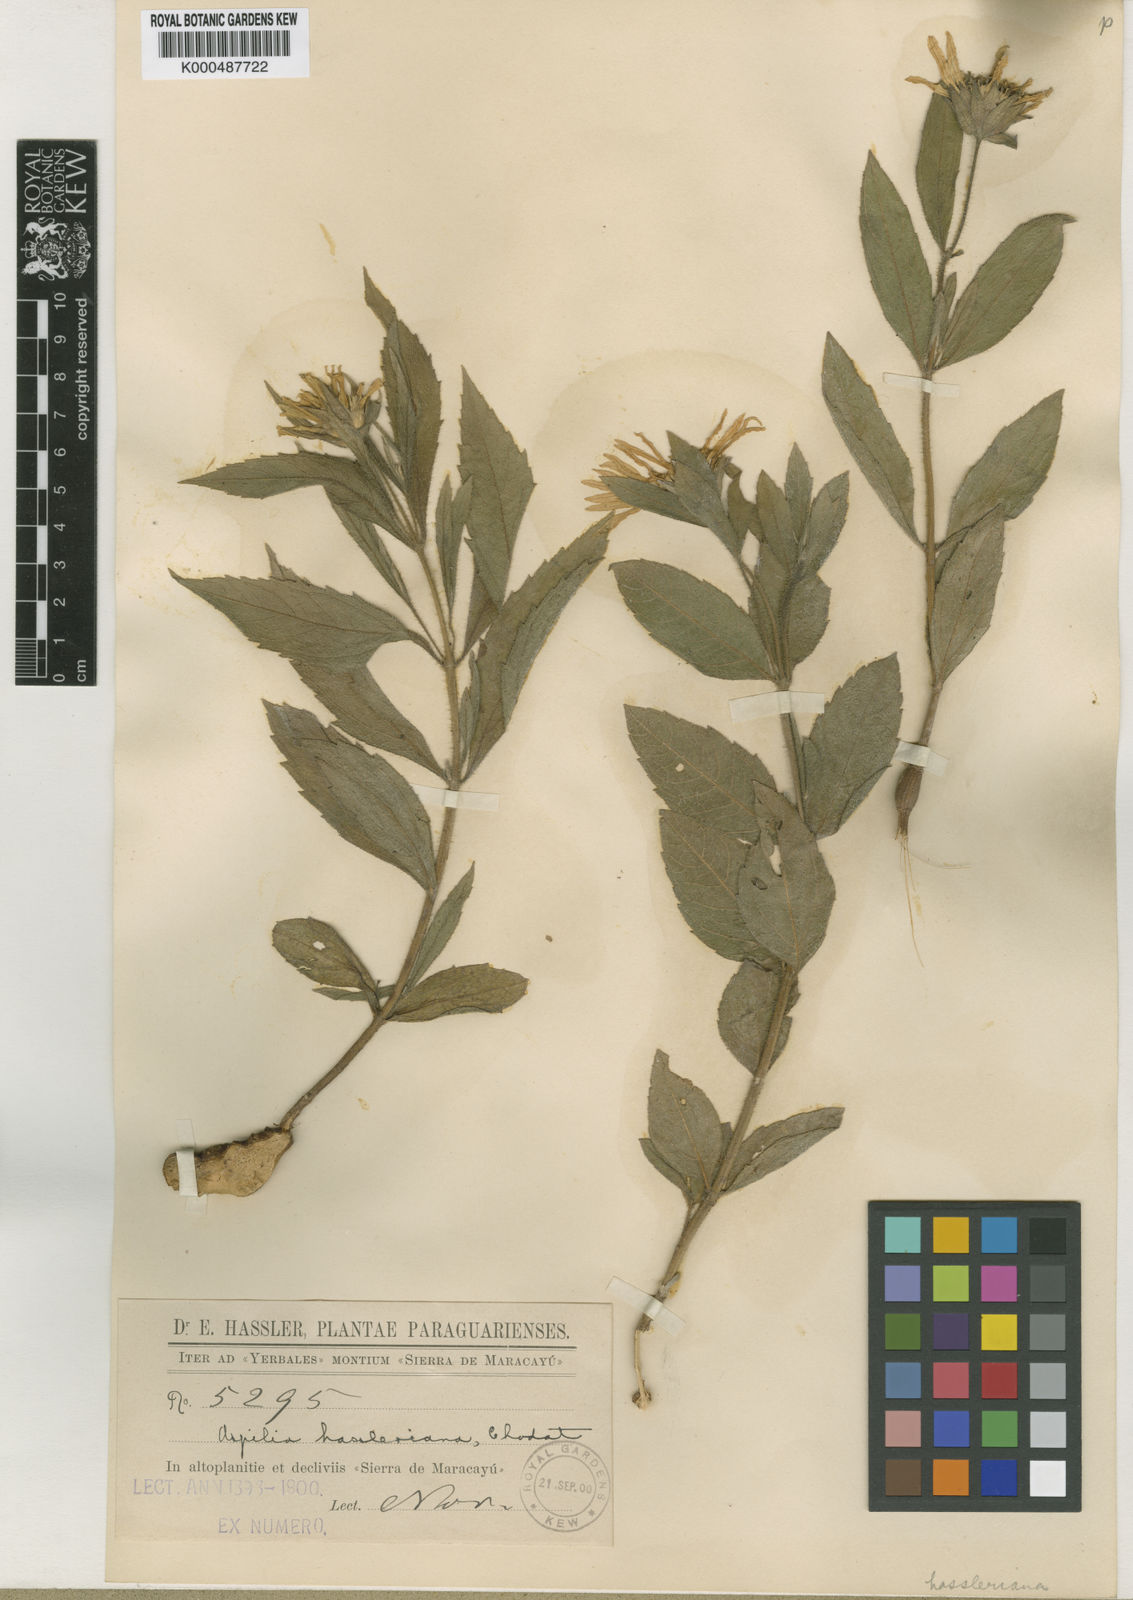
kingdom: Plantae
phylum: Tracheophyta
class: Magnoliopsida
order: Asterales
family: Asteraceae
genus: Wedelia
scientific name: Wedelia hassleriana
